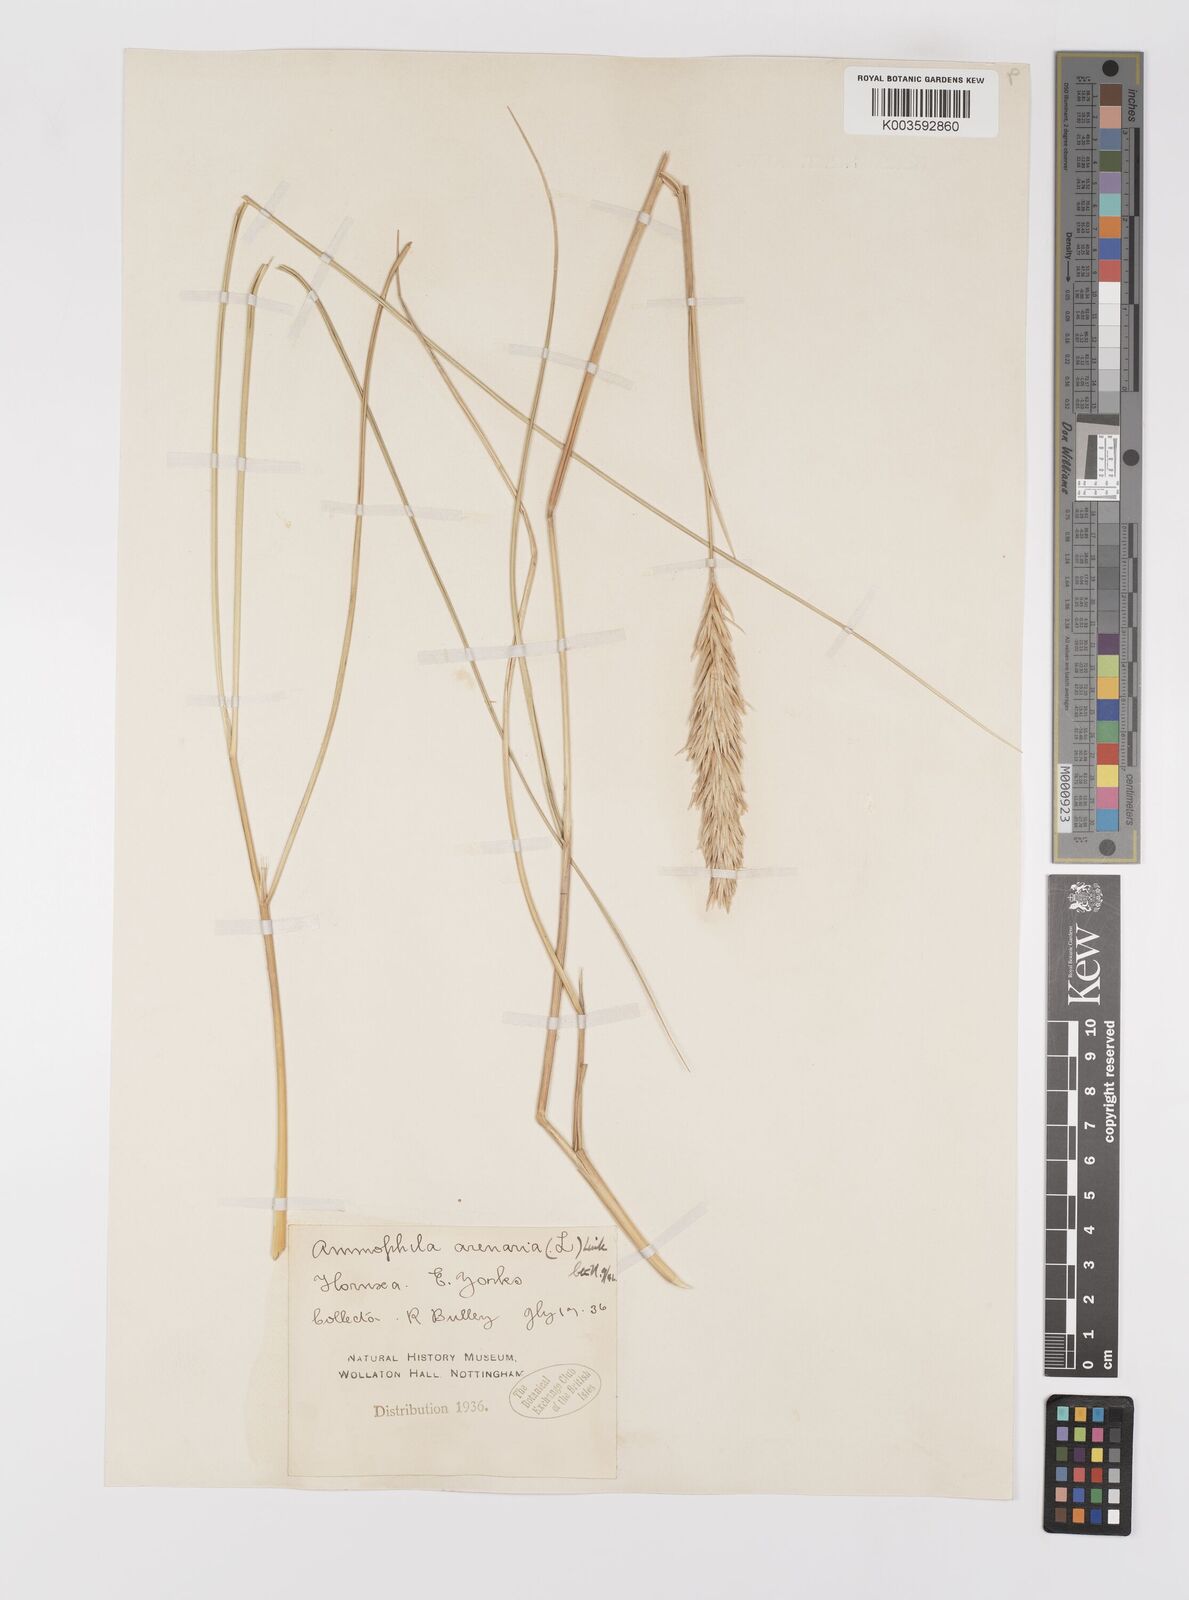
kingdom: Plantae
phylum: Tracheophyta
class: Liliopsida
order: Poales
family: Poaceae
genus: Calamagrostis
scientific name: Calamagrostis arenaria
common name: European beachgrass
